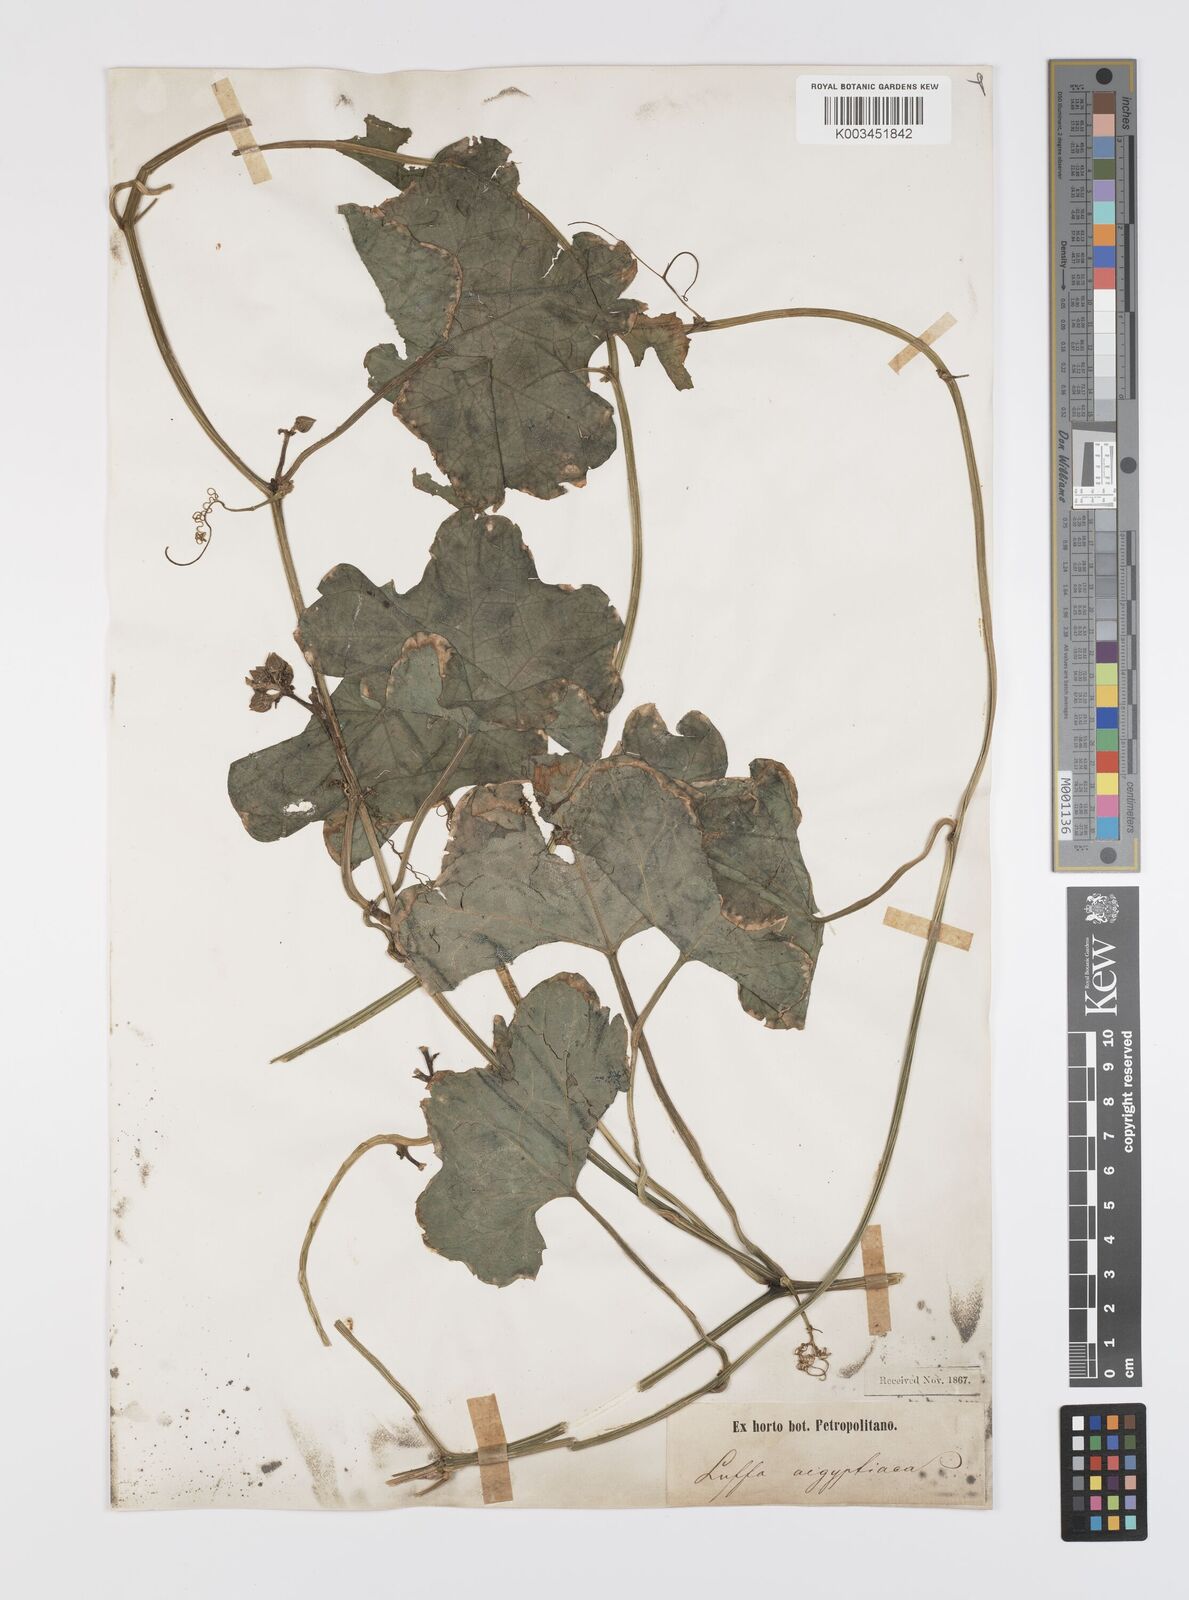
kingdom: Plantae
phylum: Tracheophyta
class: Magnoliopsida
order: Cucurbitales
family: Cucurbitaceae
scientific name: Cucurbitaceae
